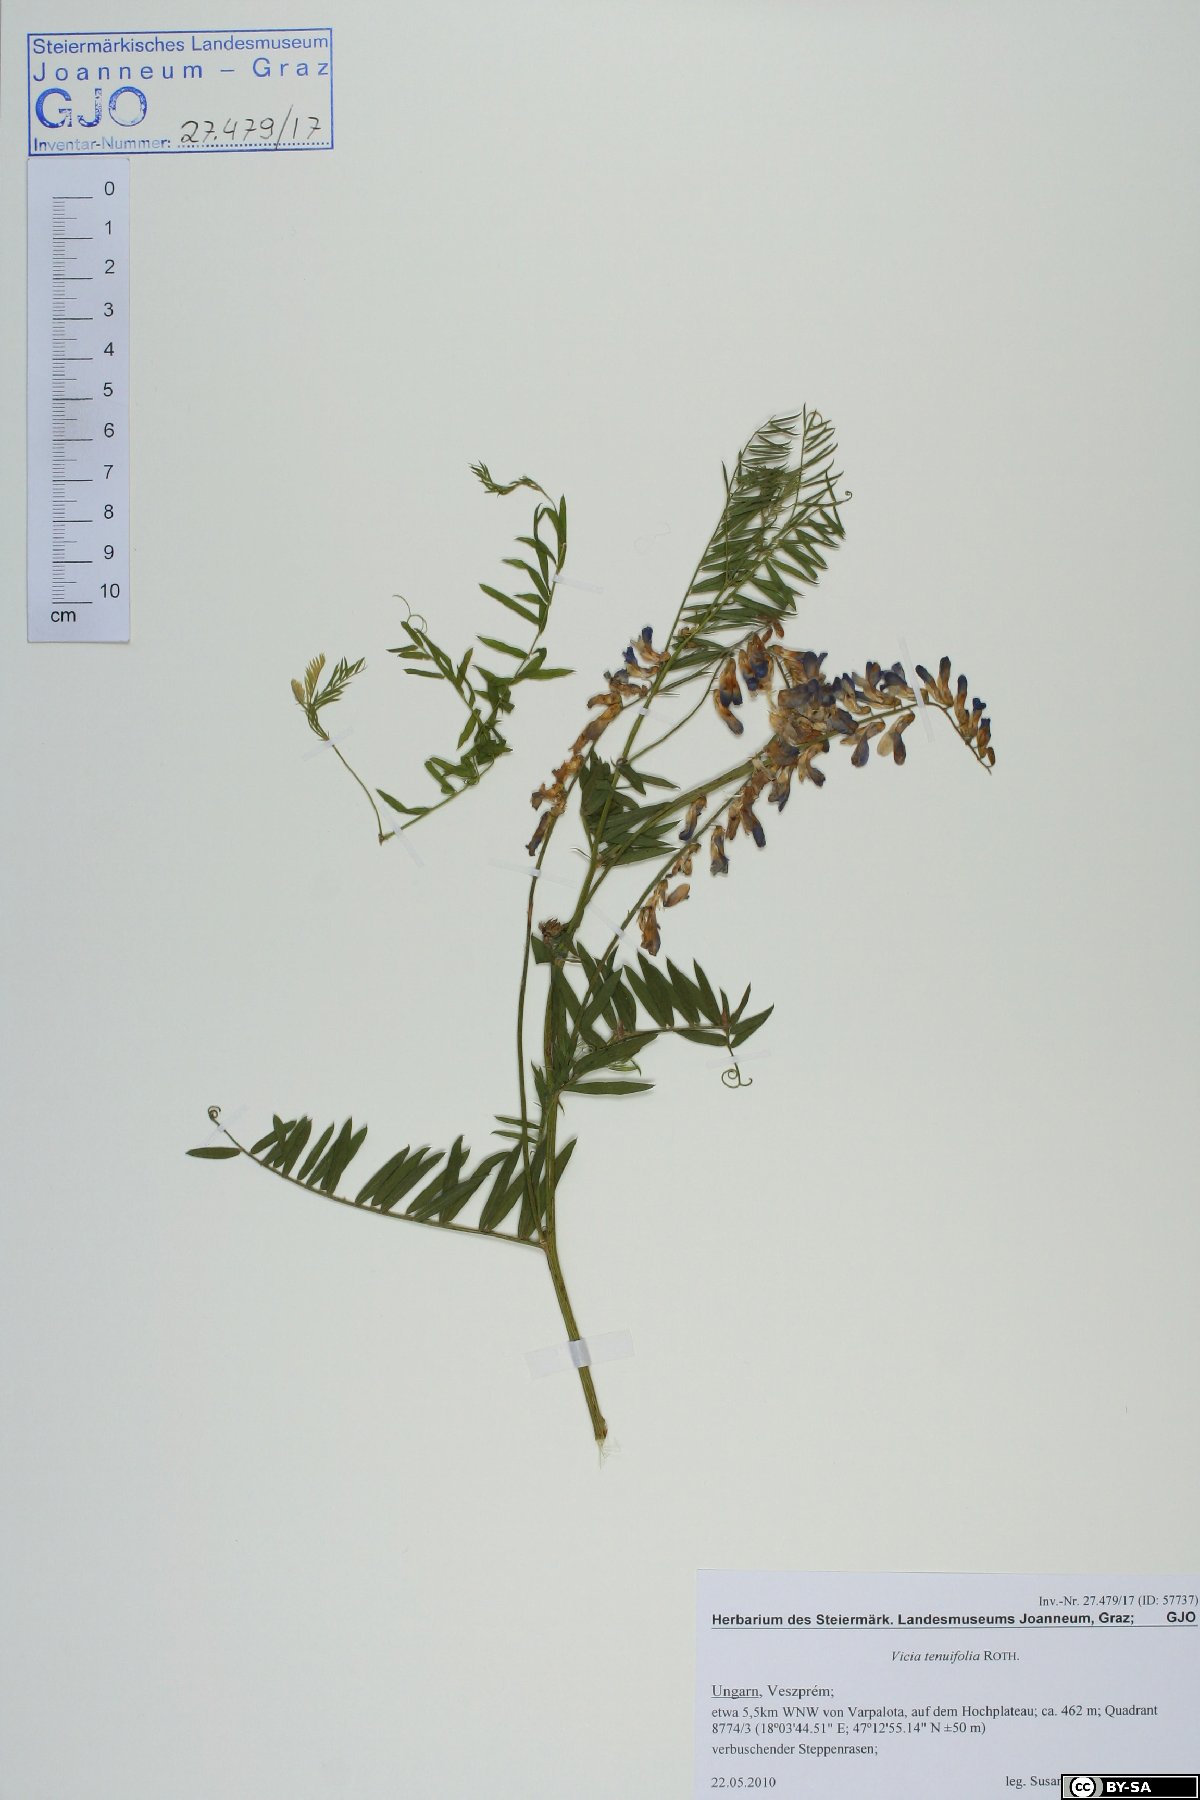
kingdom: Plantae
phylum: Tracheophyta
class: Magnoliopsida
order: Fabales
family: Fabaceae
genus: Vicia
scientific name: Vicia tenuifolia
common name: Fine-leaved vetch
